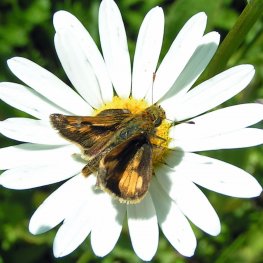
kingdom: Animalia
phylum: Arthropoda
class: Insecta
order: Lepidoptera
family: Hesperiidae
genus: Polites
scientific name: Polites coras
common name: Peck's Skipper
